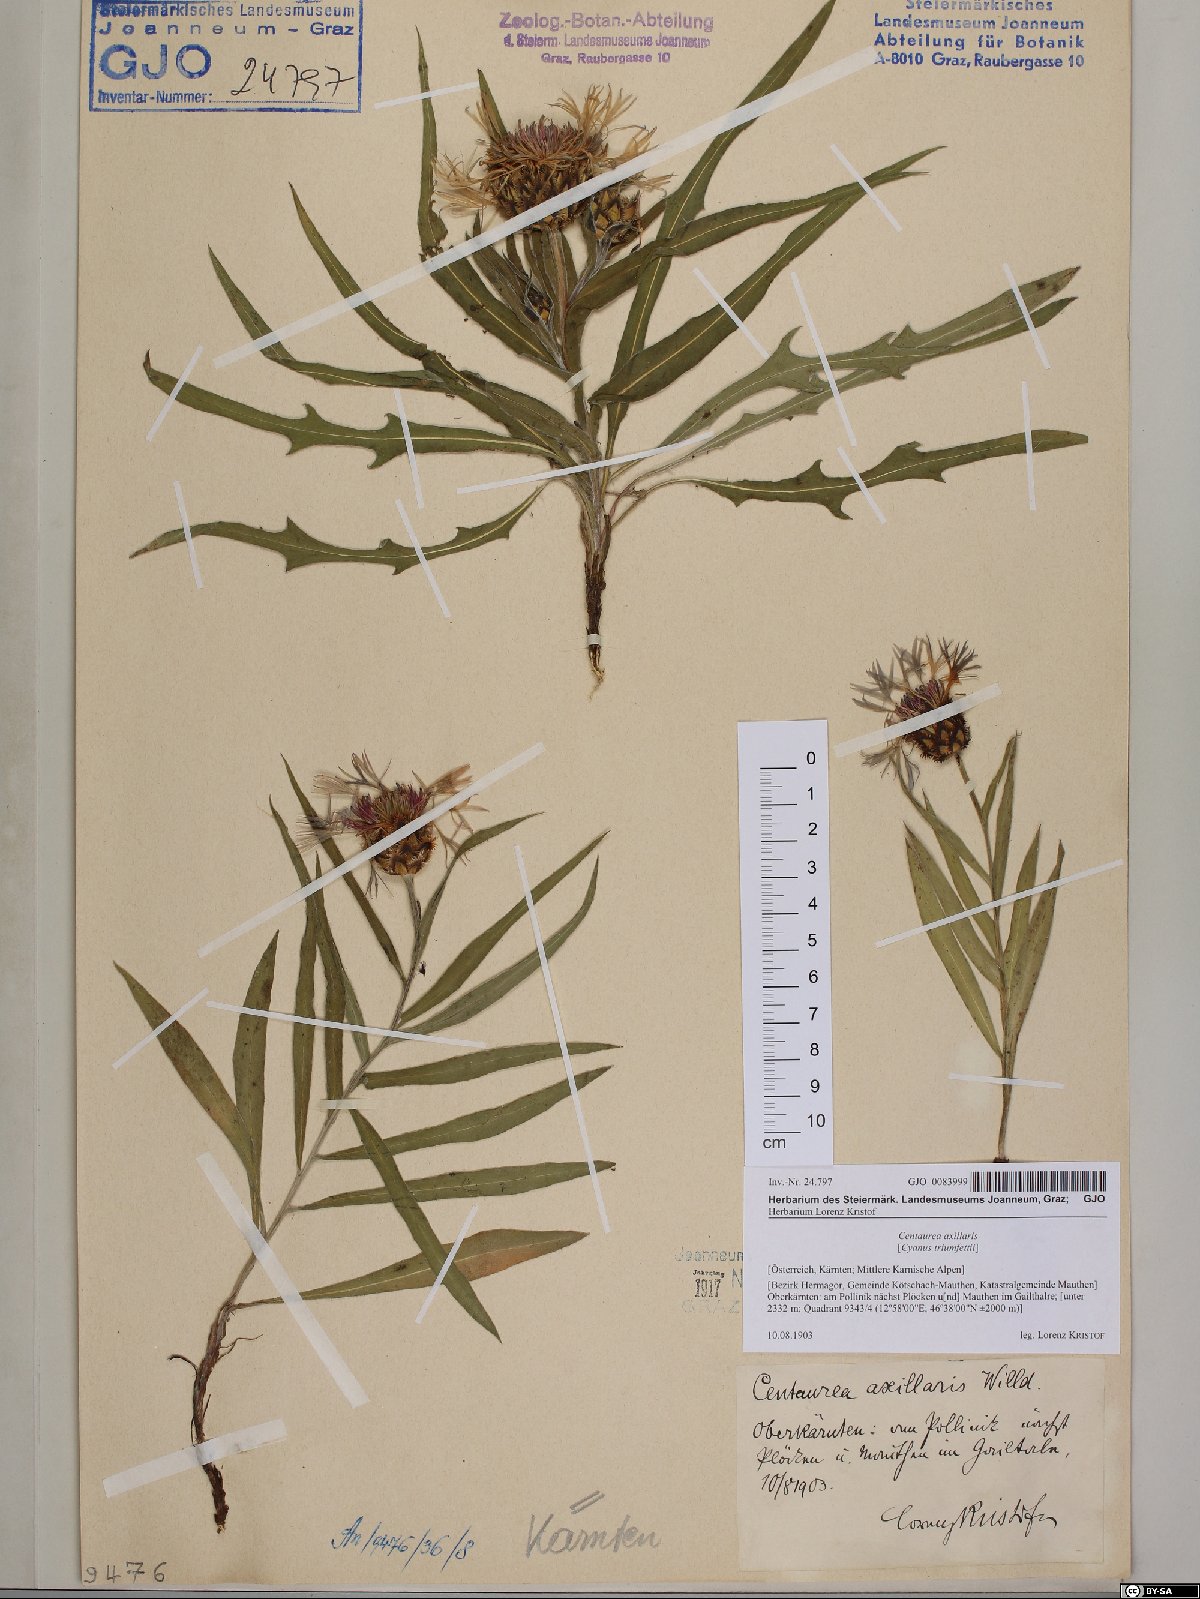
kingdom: Plantae
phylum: Tracheophyta
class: Magnoliopsida
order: Asterales
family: Asteraceae
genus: Centaurea
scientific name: Centaurea triumfettii
